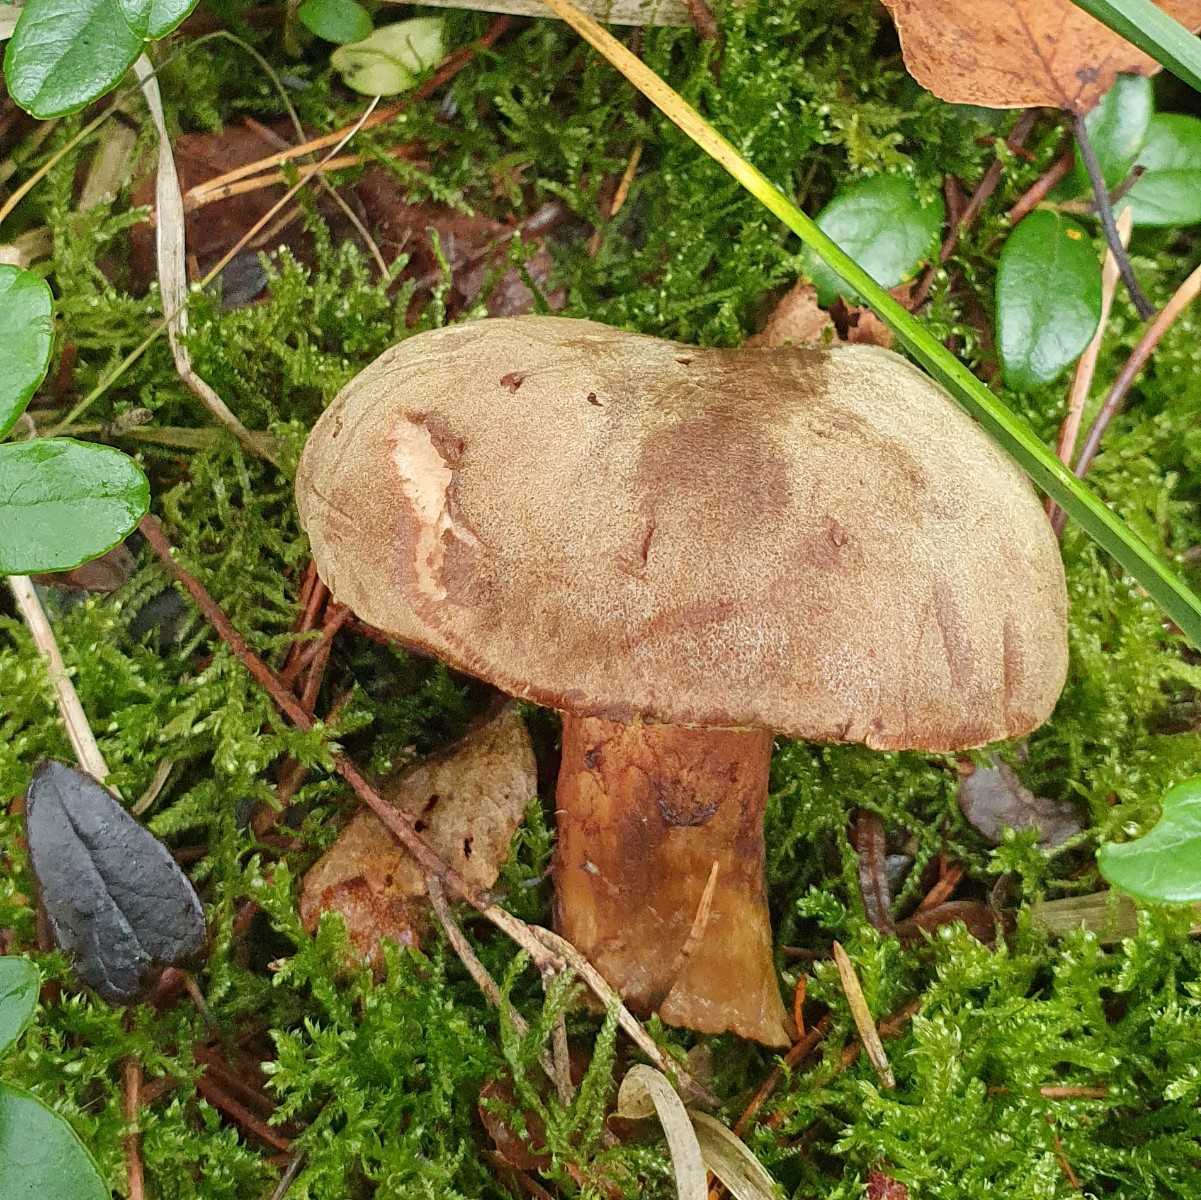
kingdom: Fungi
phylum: Basidiomycota
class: Agaricomycetes
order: Boletales
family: Boletaceae
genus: Xerocomus
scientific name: Xerocomus
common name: filtrørhat
